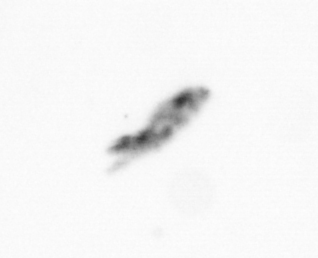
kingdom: Animalia
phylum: Arthropoda
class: Copepoda
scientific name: Copepoda
